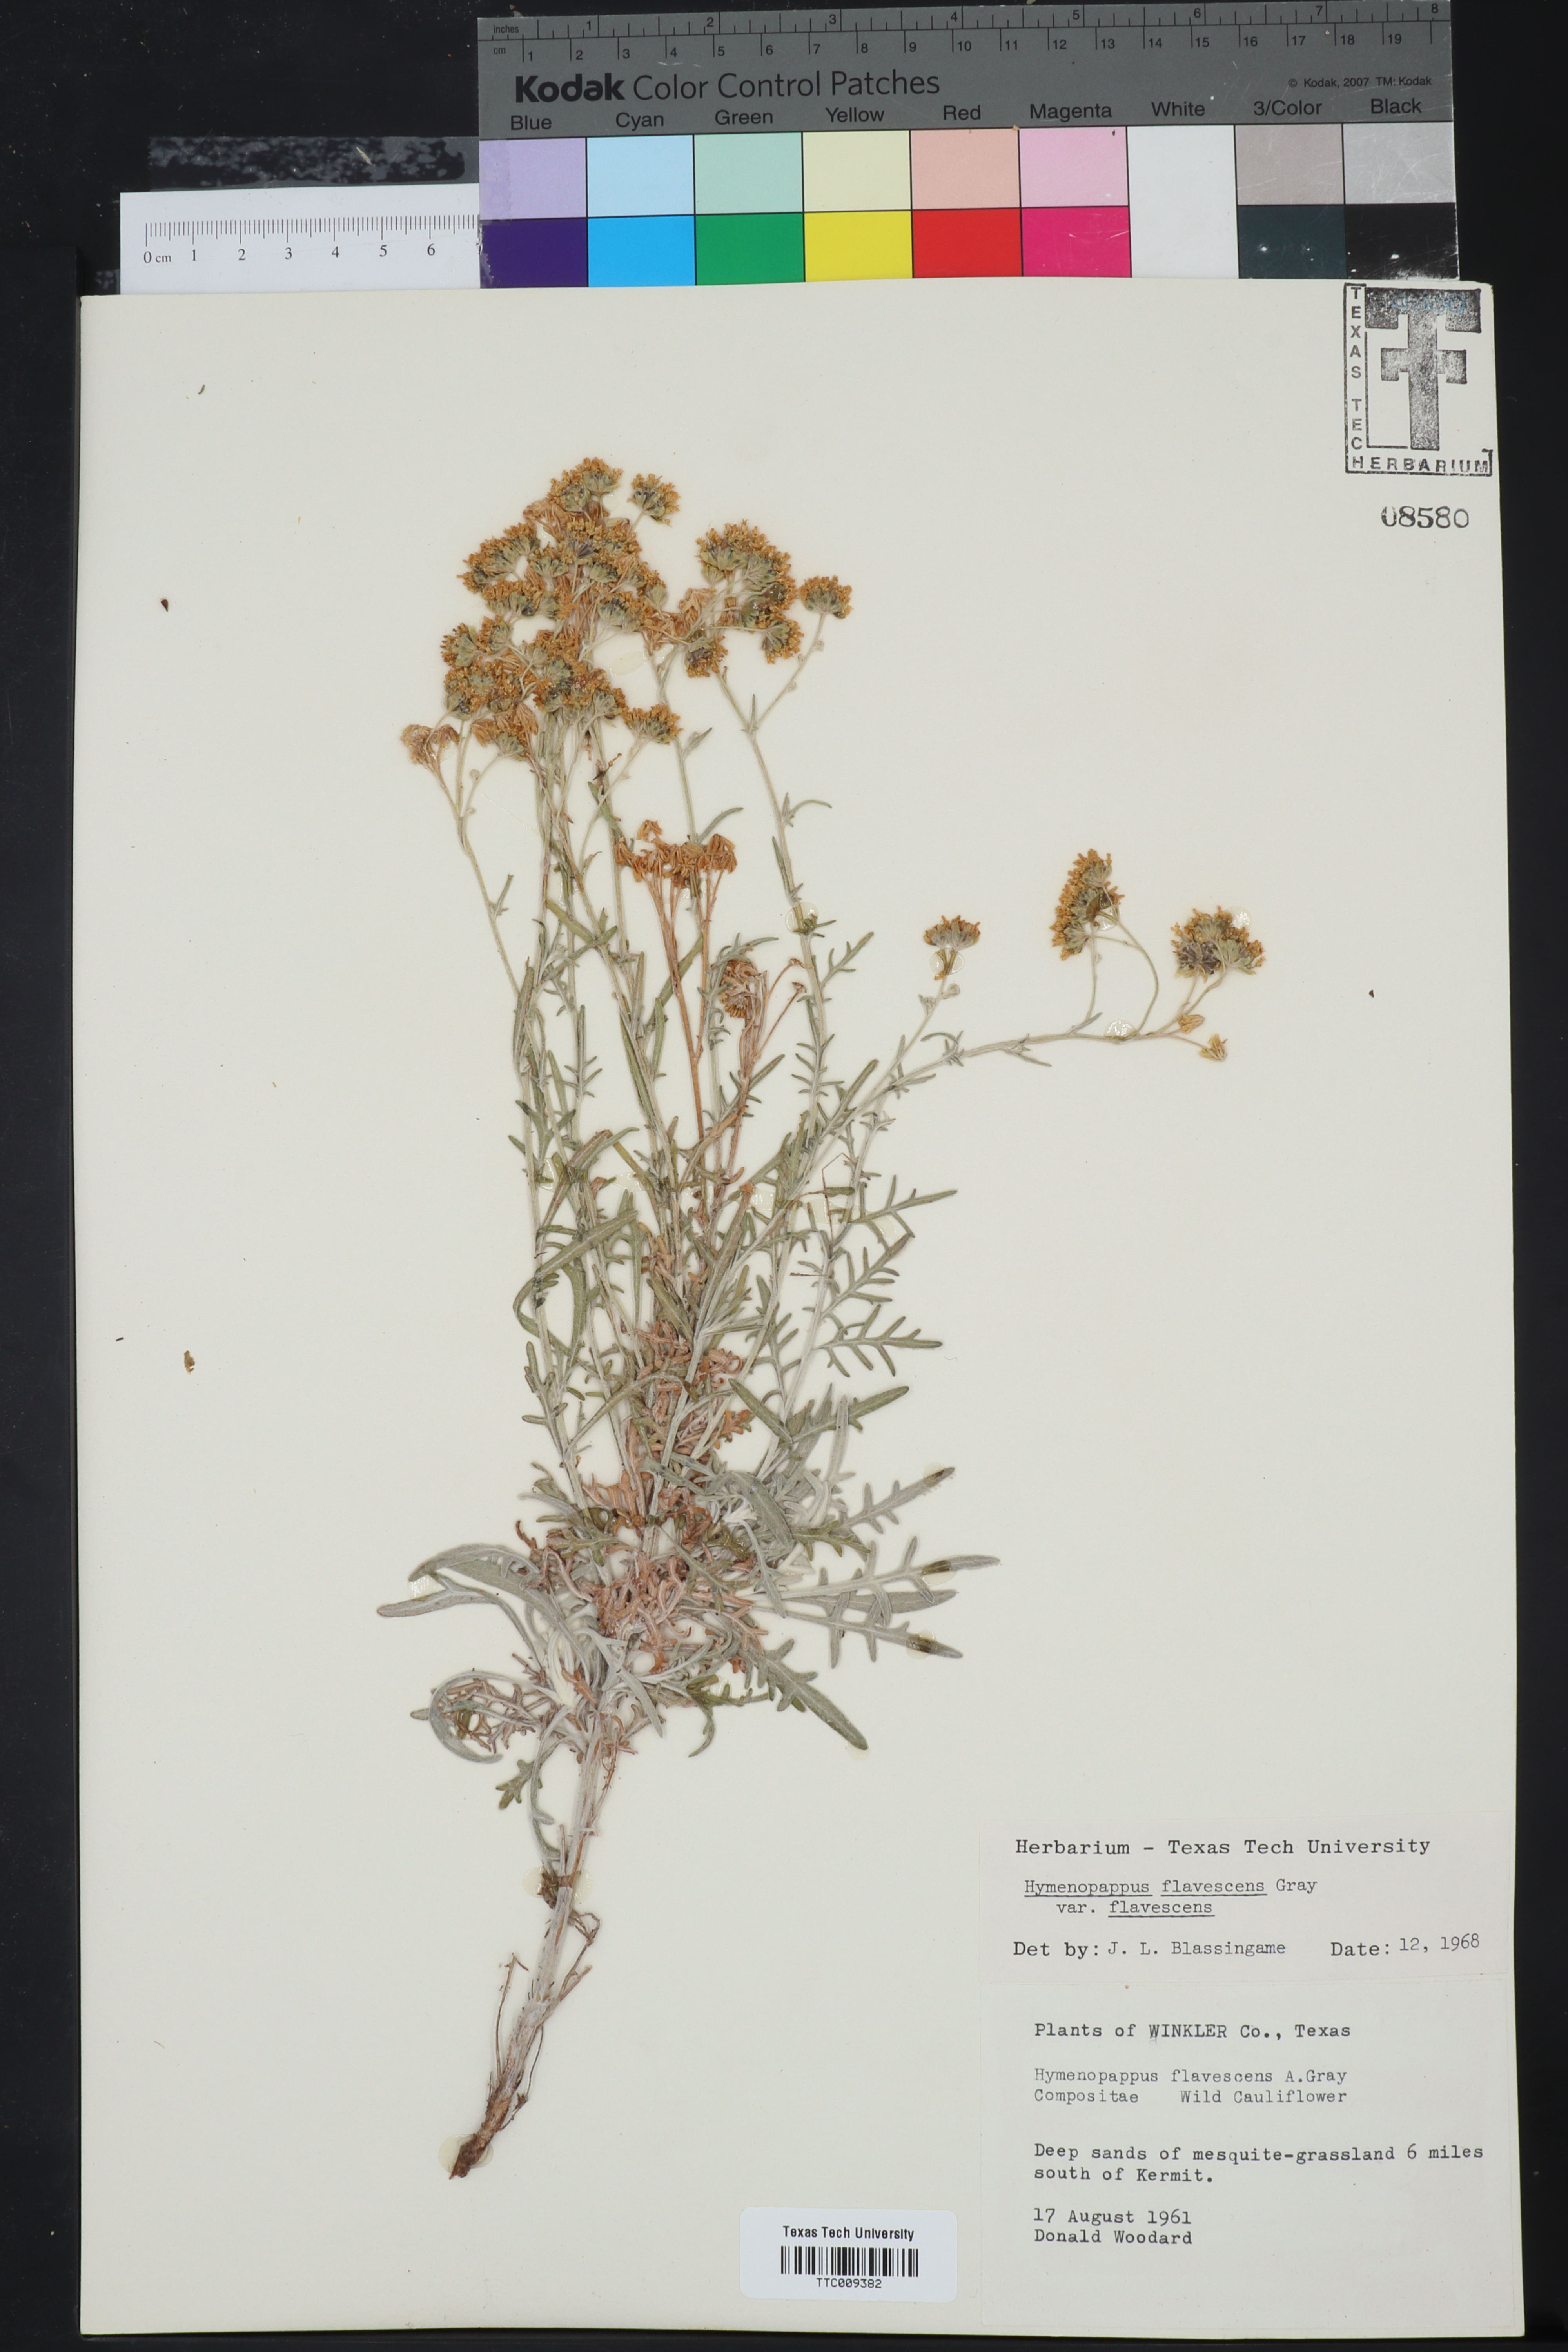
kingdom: Plantae
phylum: Tracheophyta
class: Magnoliopsida
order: Asterales
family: Asteraceae
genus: Hymenopappus
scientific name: Hymenopappus flavescens
